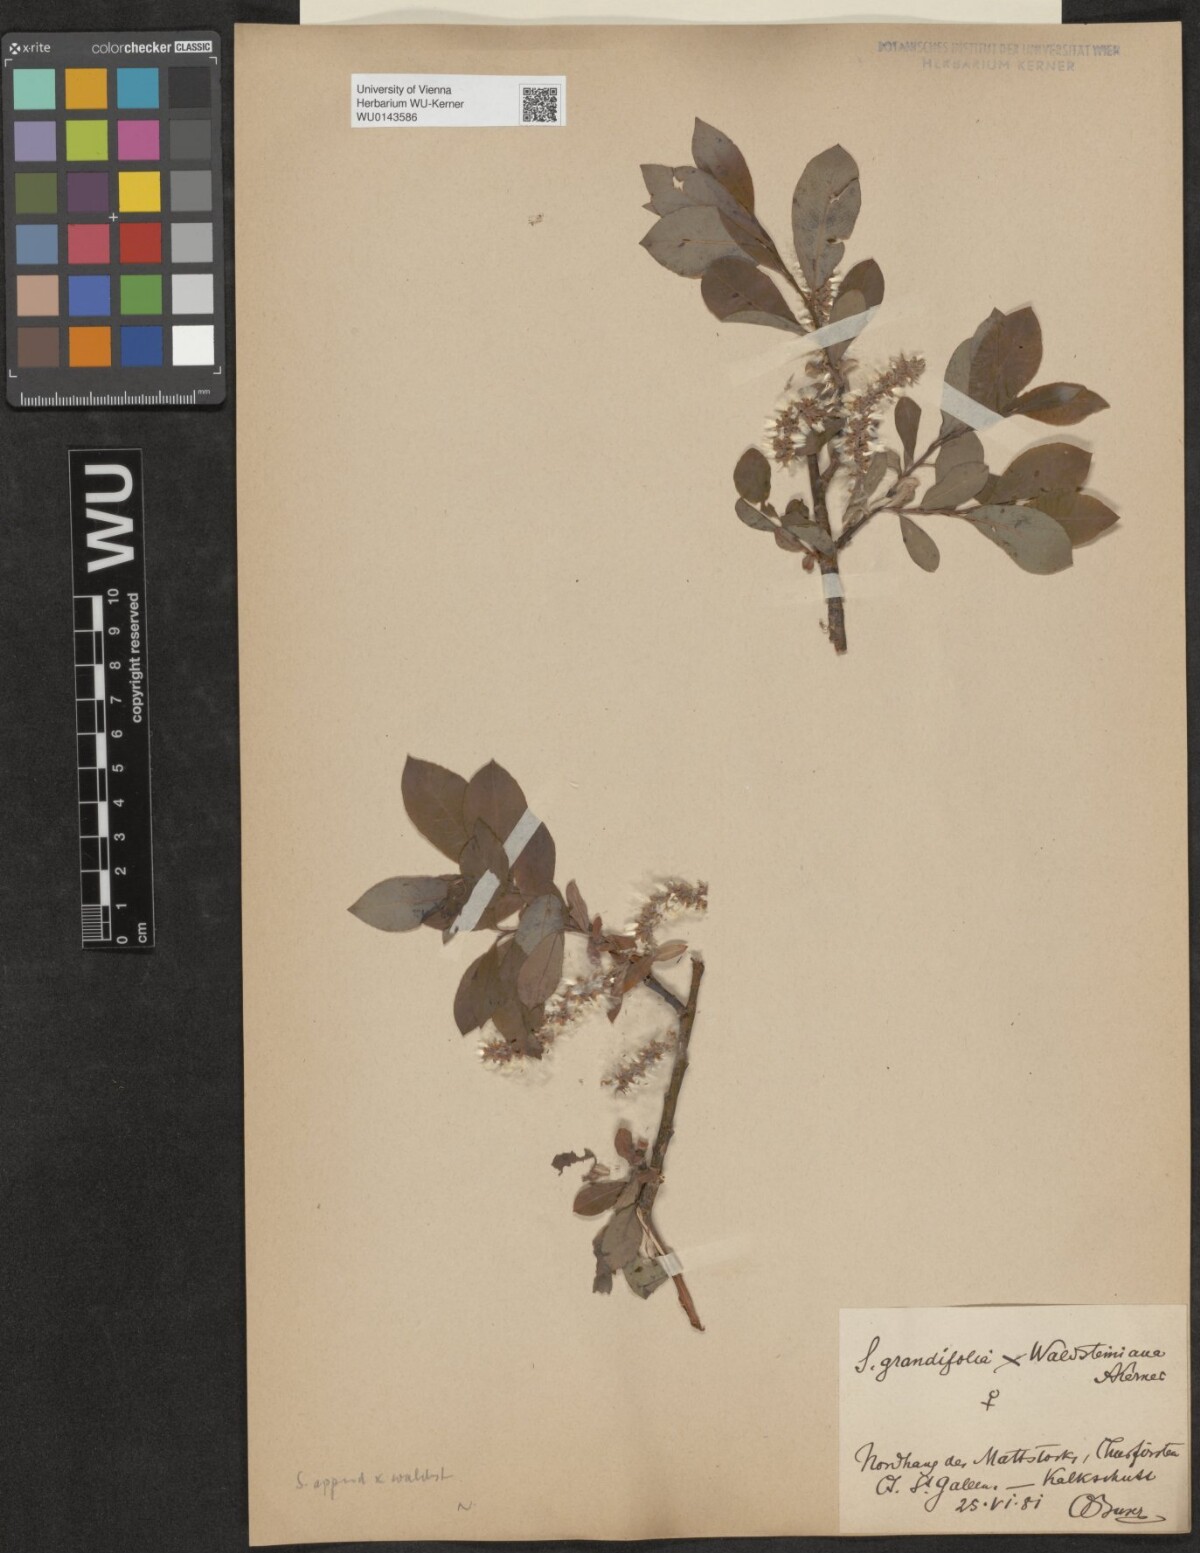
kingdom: Plantae
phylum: Tracheophyta
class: Magnoliopsida
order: Malpighiales
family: Salicaceae
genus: Salix
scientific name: Salix waldsteiniana
